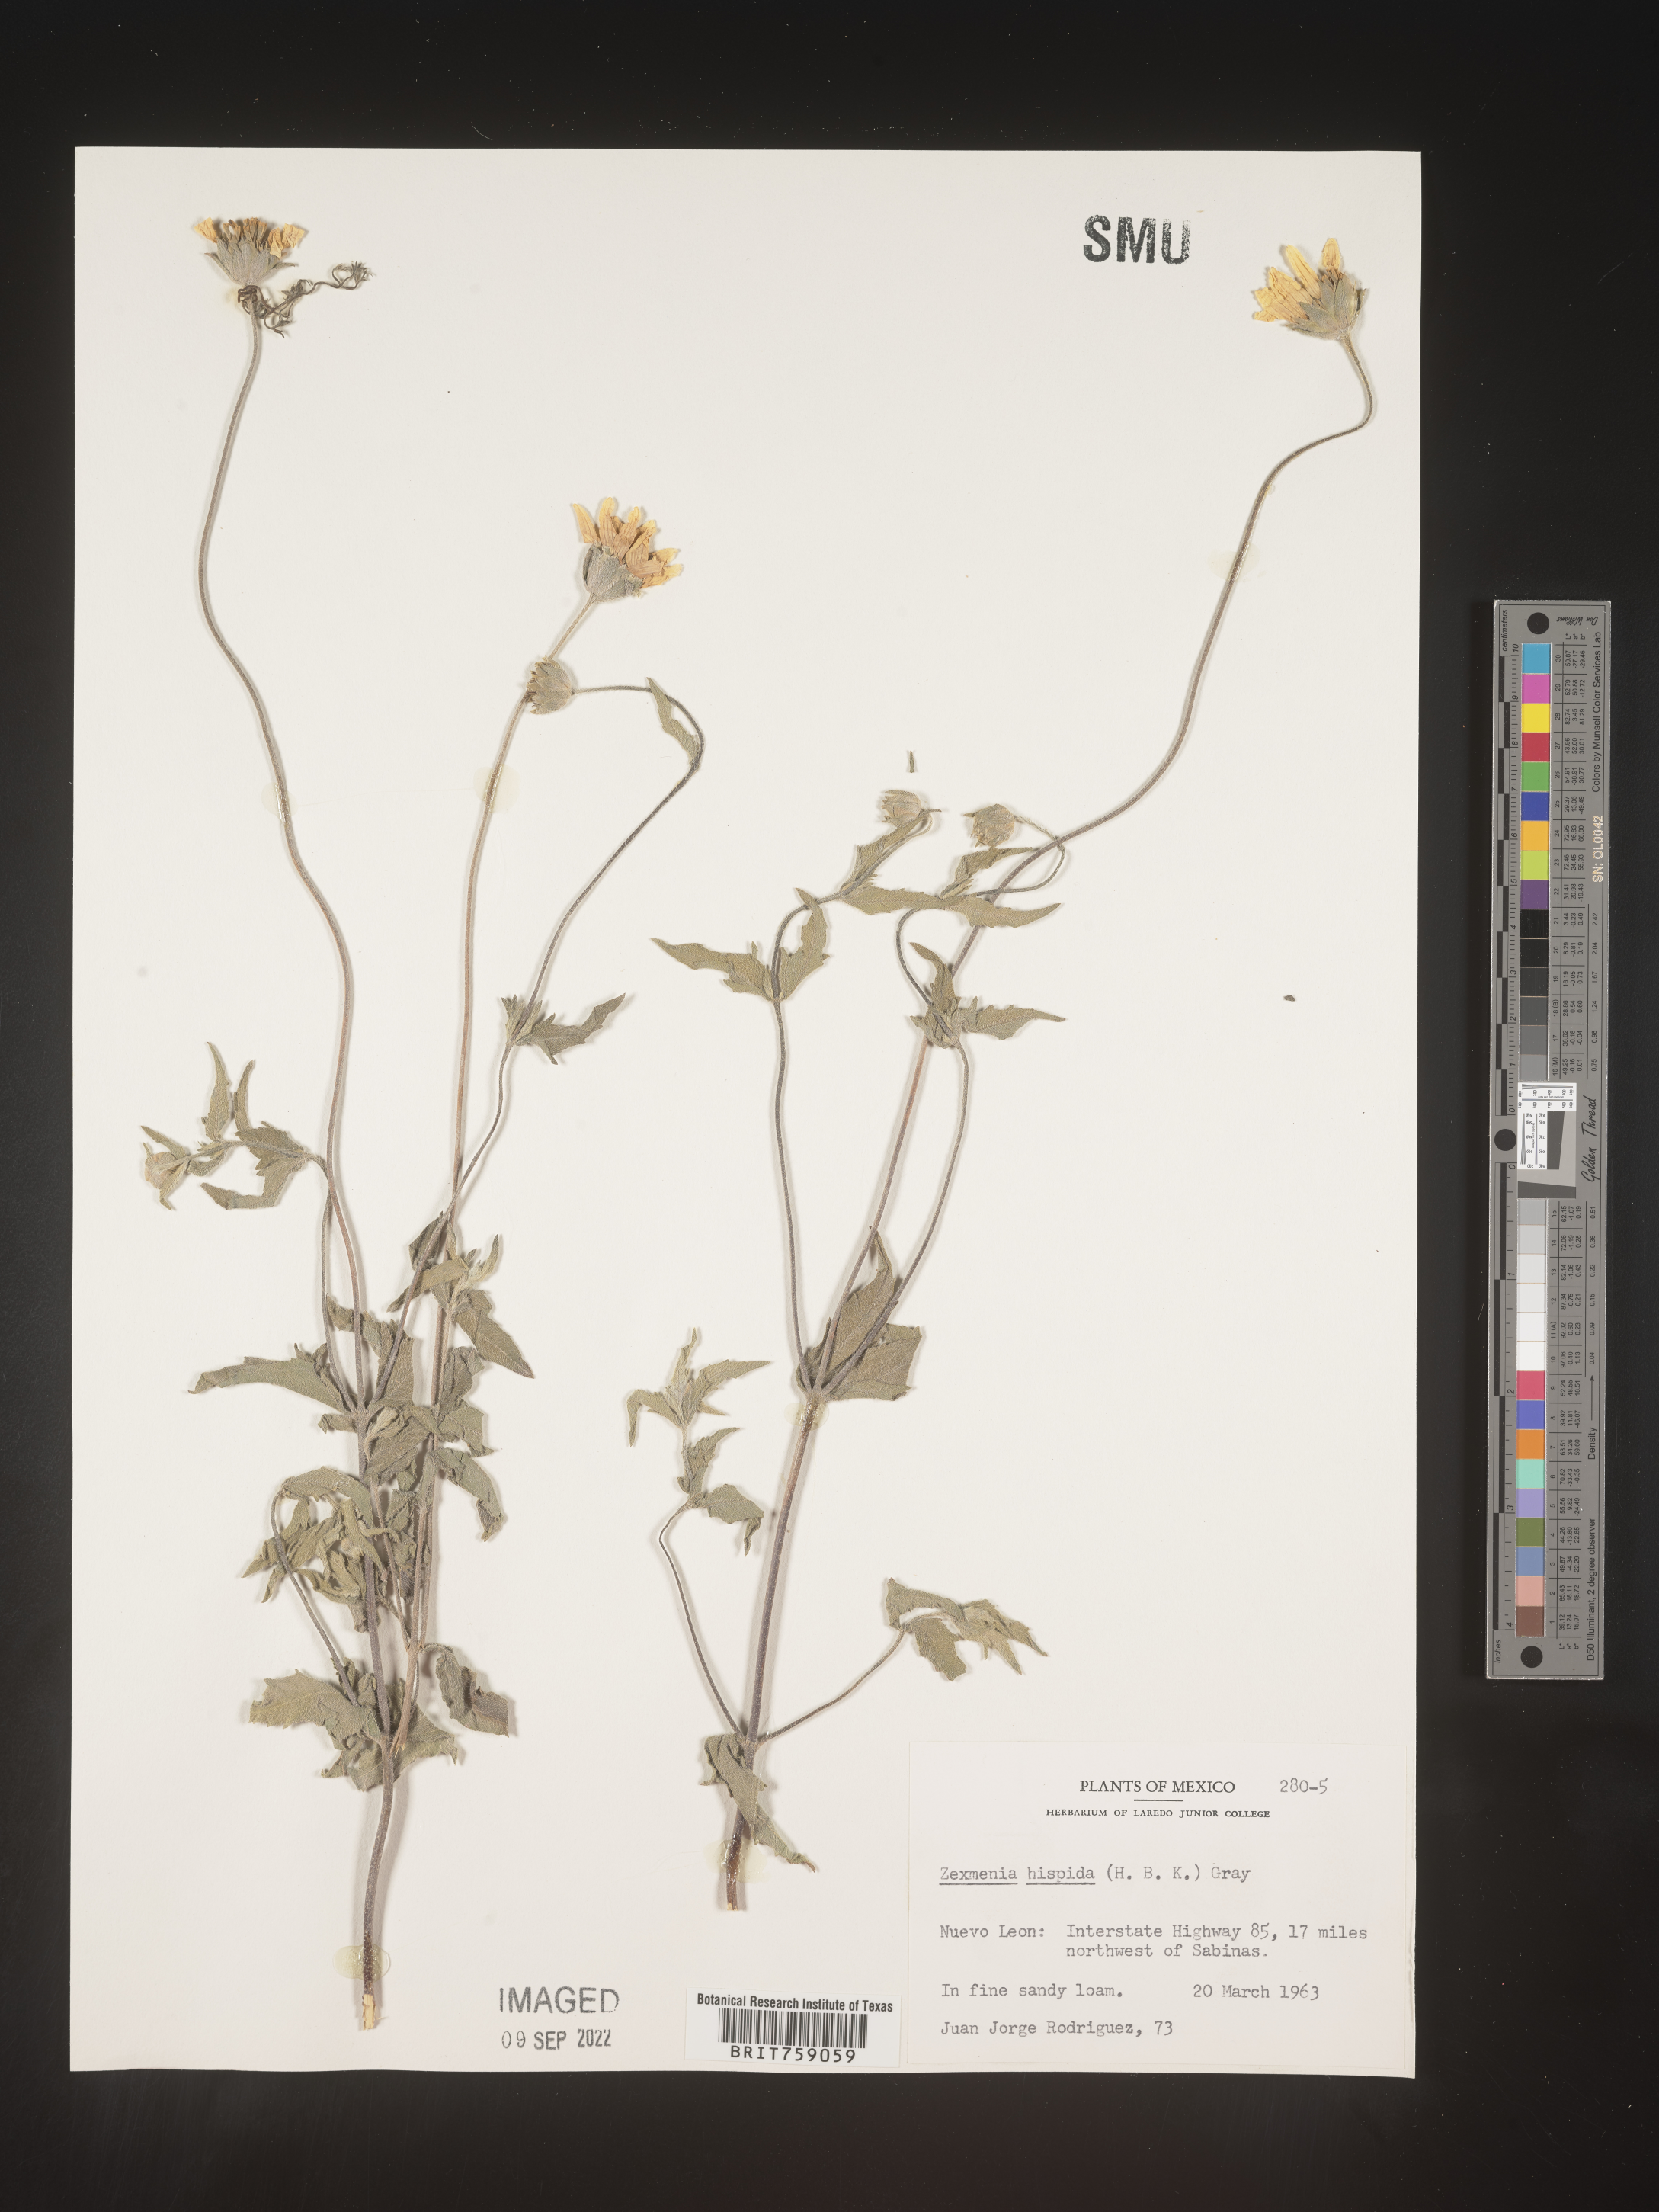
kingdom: Plantae
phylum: Tracheophyta
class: Magnoliopsida
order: Asterales
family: Asteraceae
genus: Wedelia
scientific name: Wedelia acapulcensis
